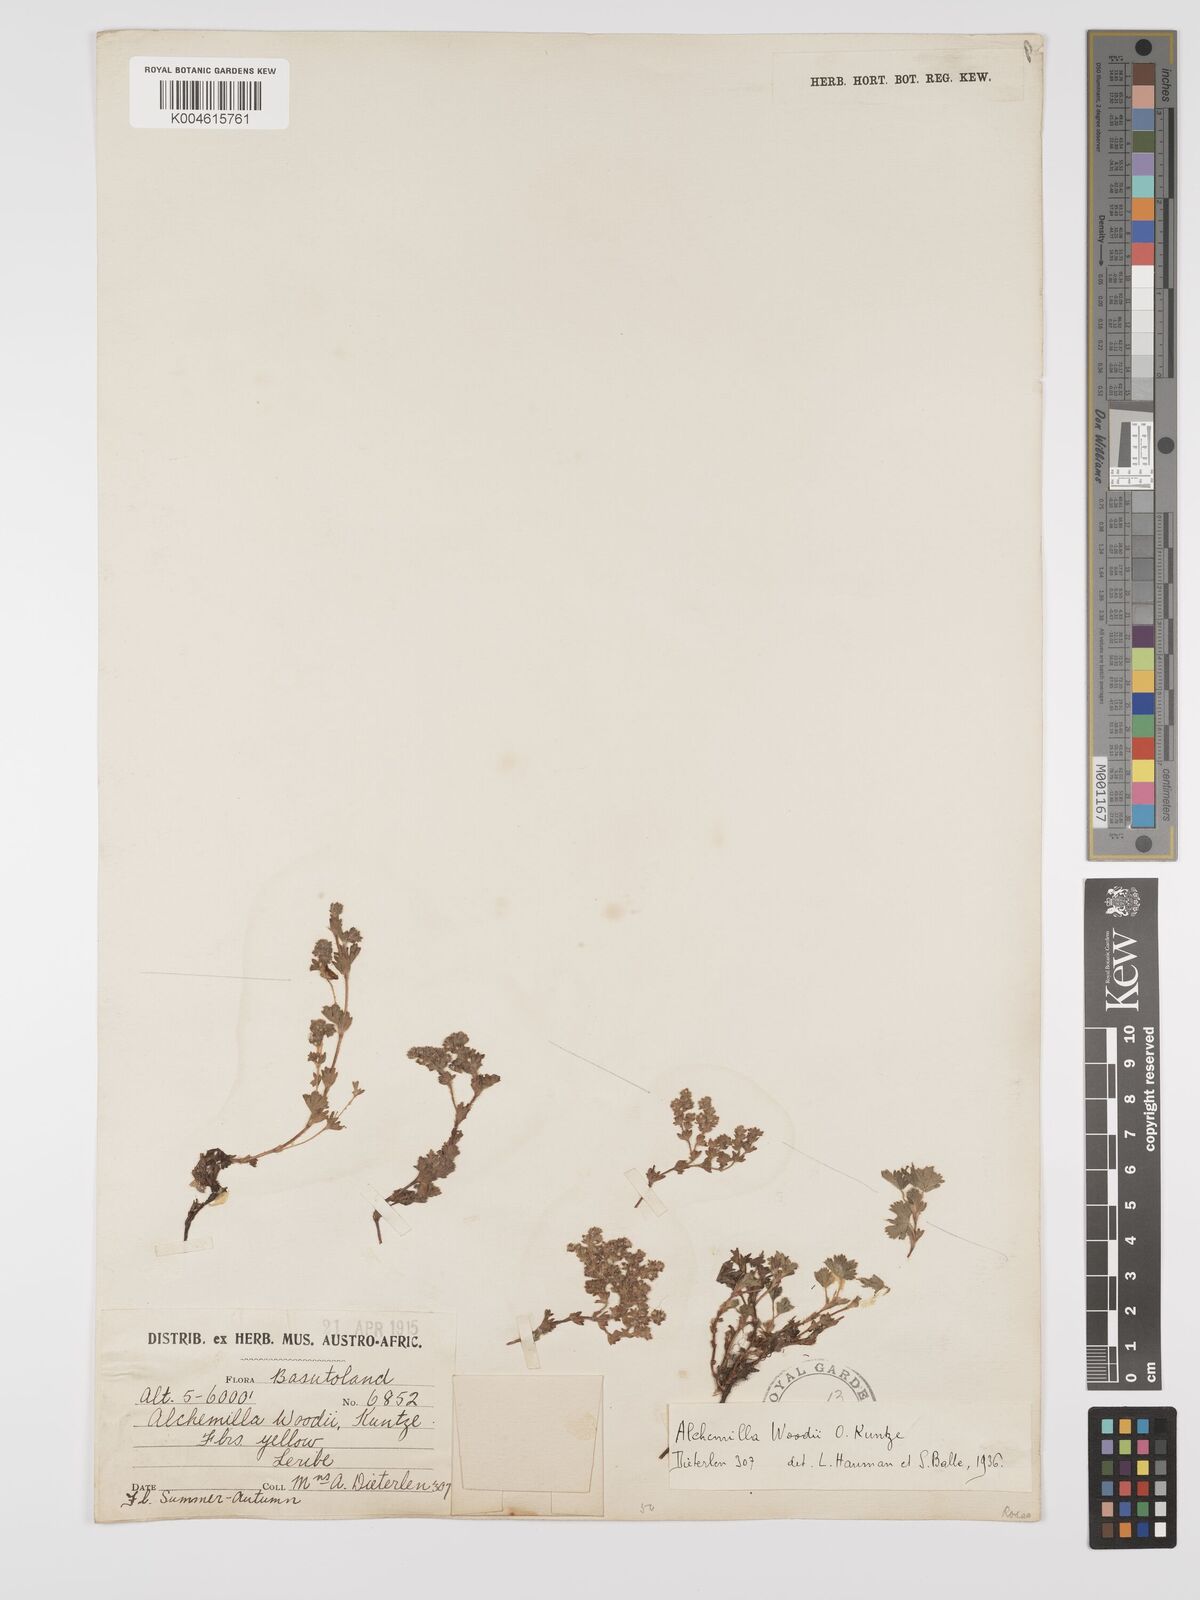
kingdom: Plantae
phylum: Tracheophyta
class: Magnoliopsida
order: Rosales
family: Rosaceae
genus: Alchemilla
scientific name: Alchemilla woodii
